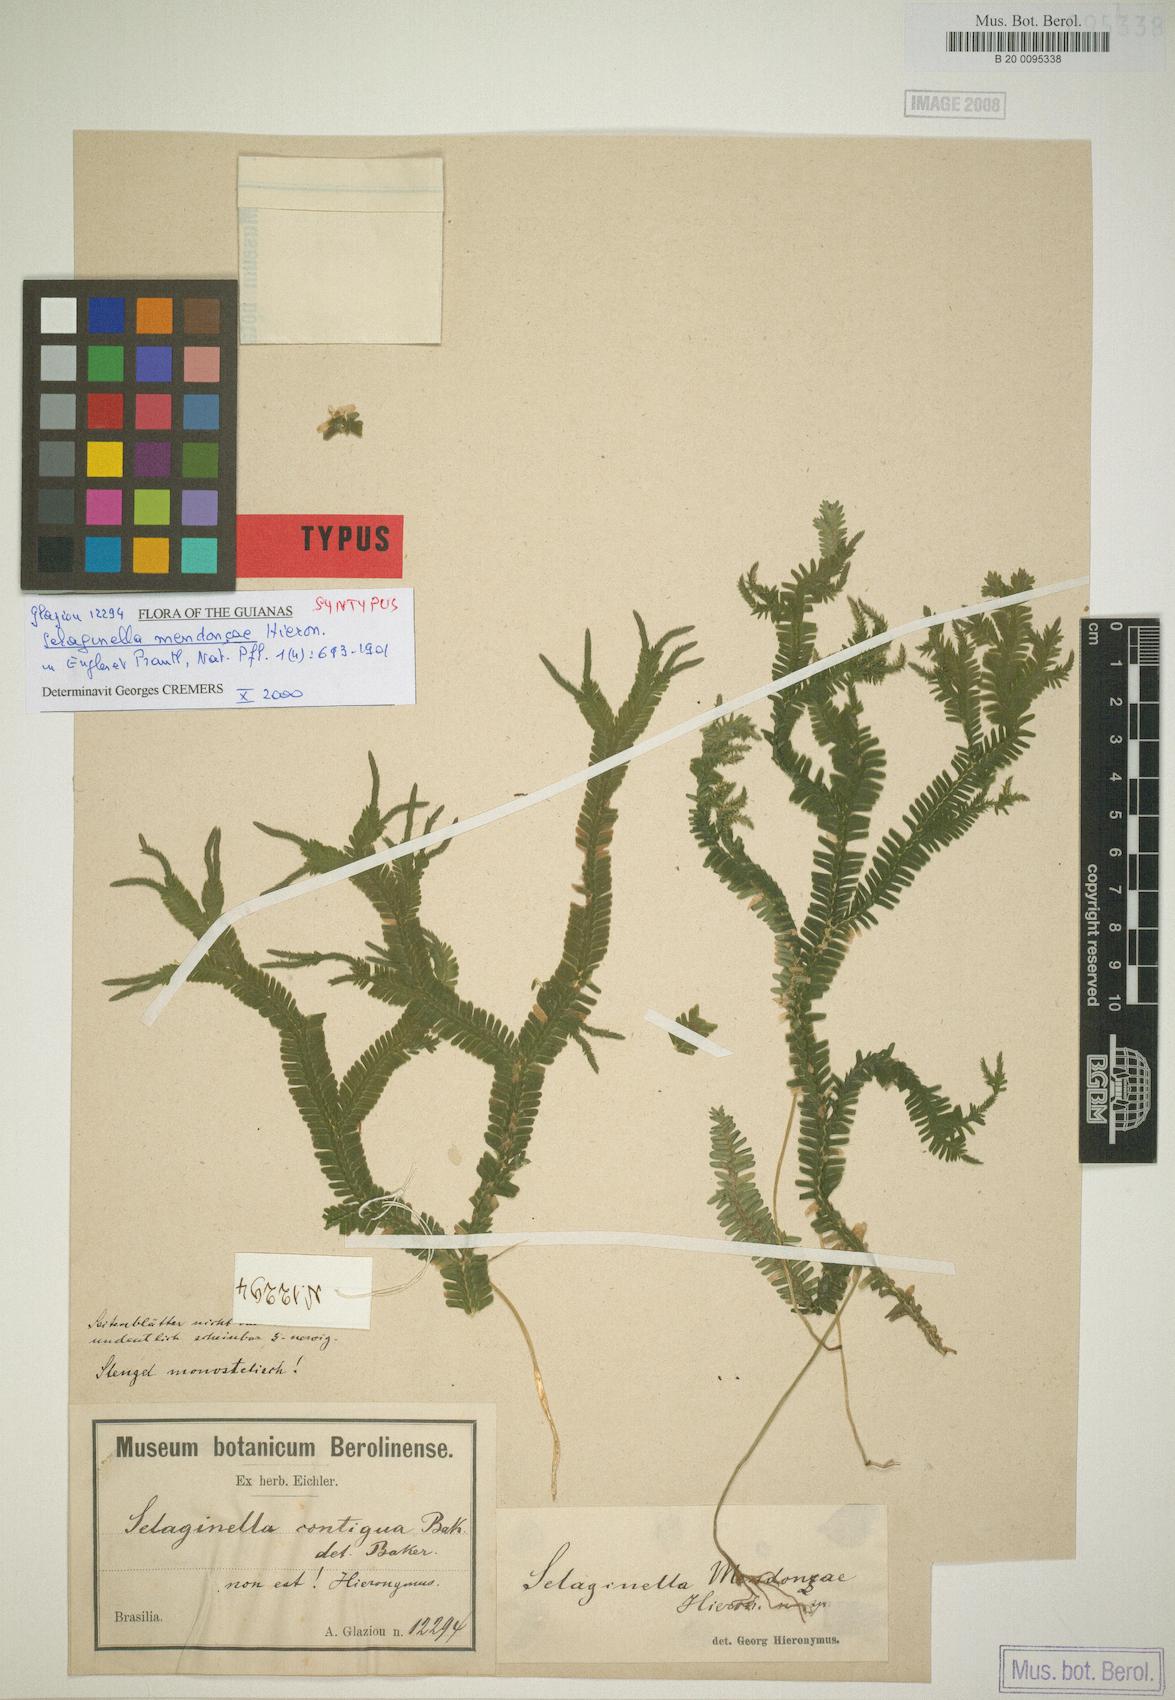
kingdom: Plantae
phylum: Tracheophyta
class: Lycopodiopsida
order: Selaginellales
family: Selaginellaceae
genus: Selaginella
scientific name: Selaginella mendoncae
